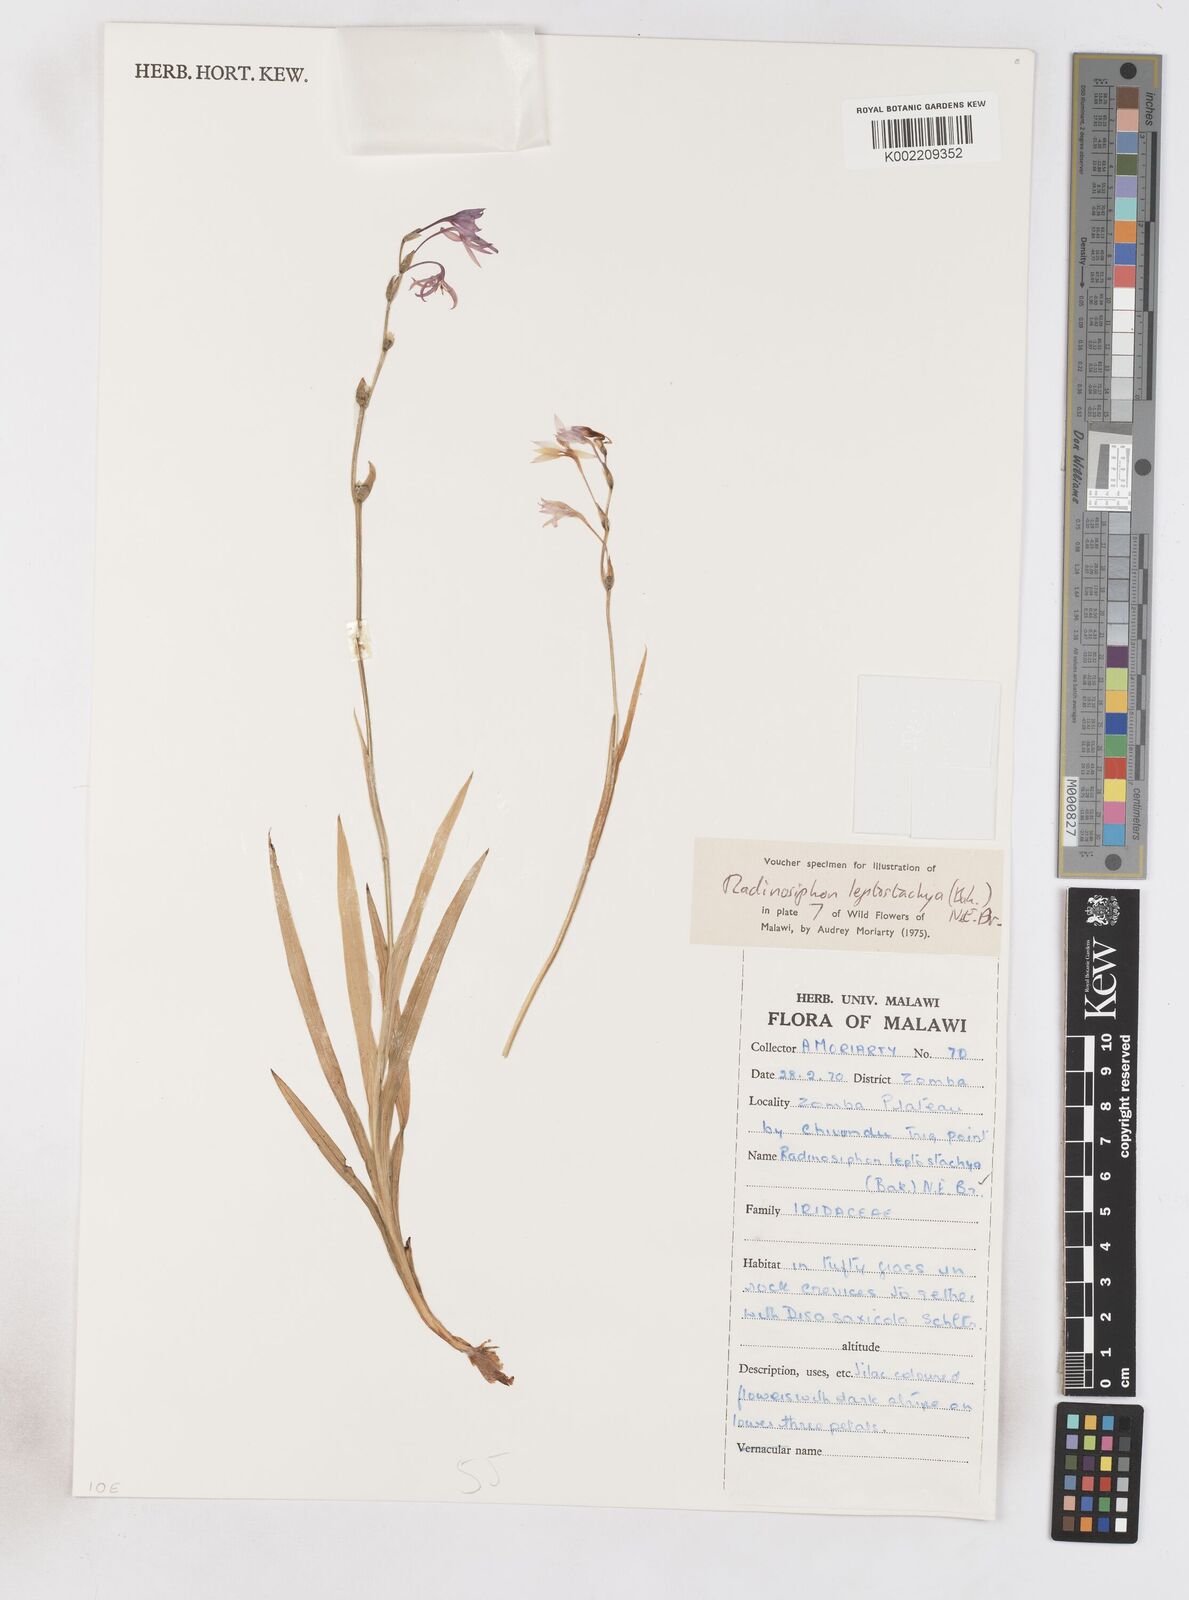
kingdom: Plantae
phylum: Tracheophyta
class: Liliopsida
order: Asparagales
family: Iridaceae
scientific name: Iridaceae
